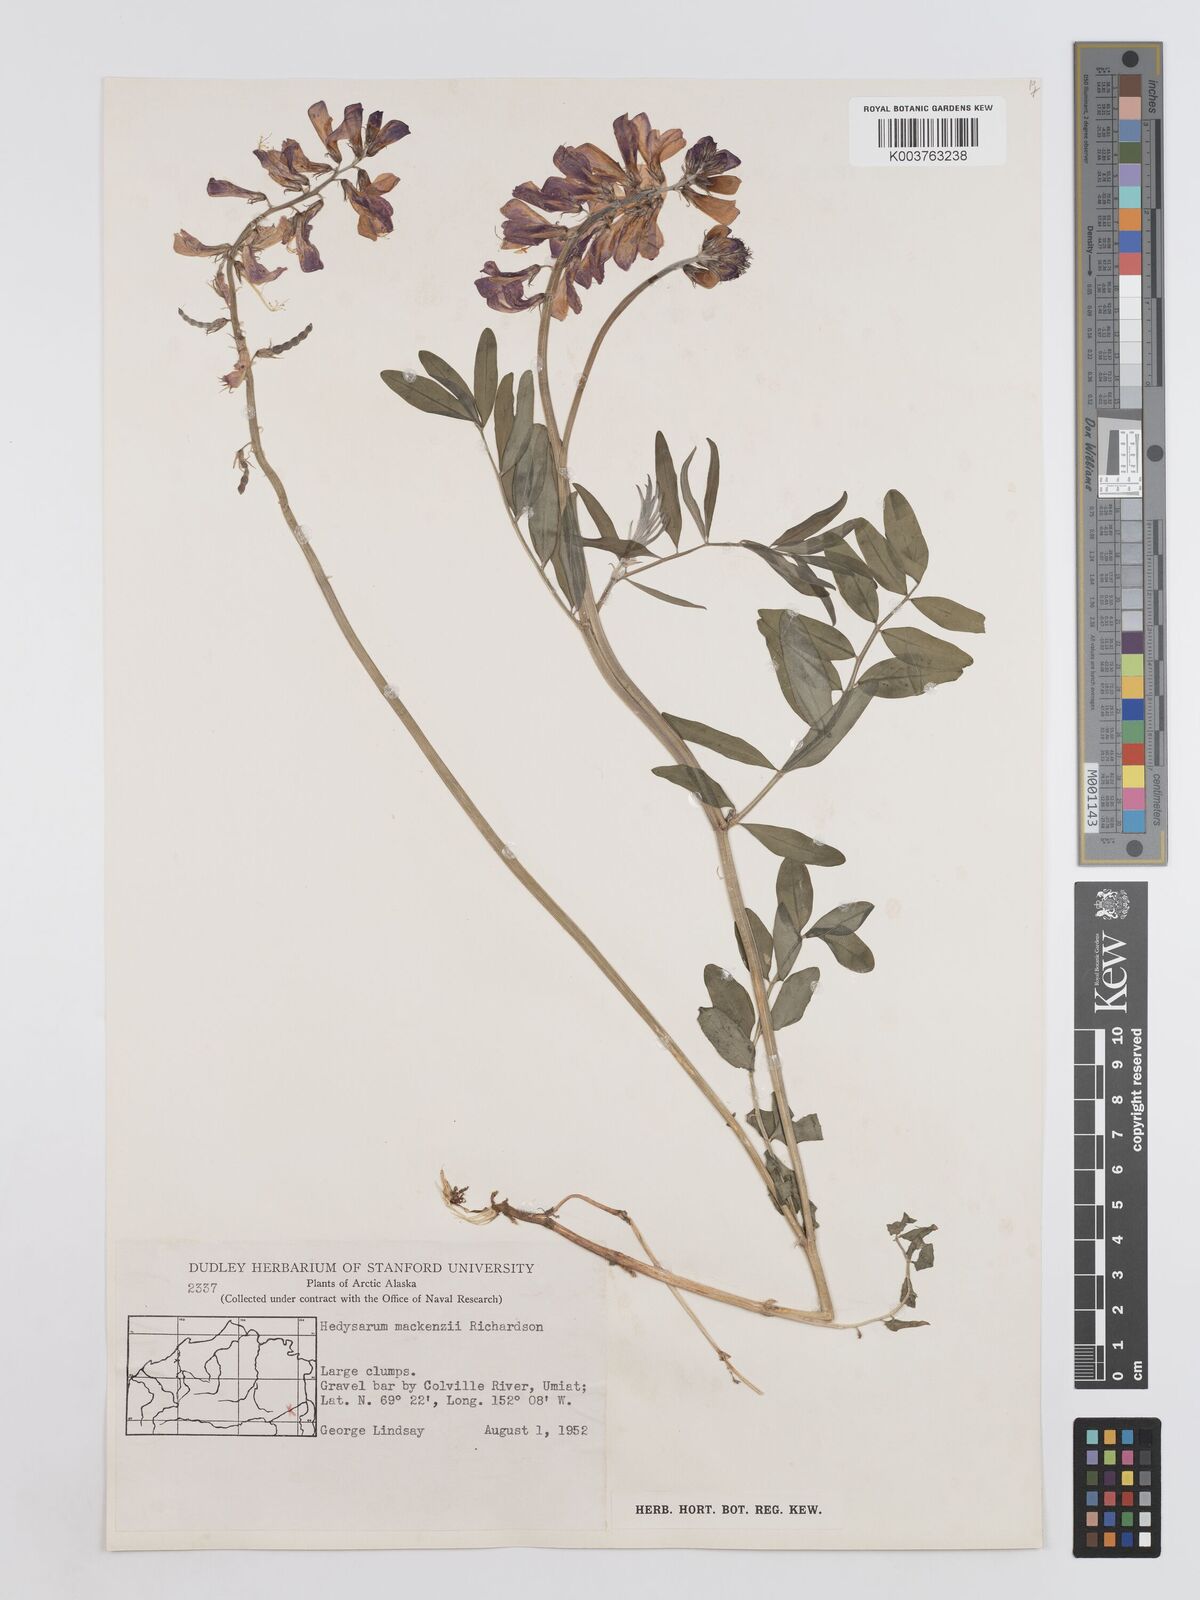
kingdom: Plantae
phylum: Tracheophyta
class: Magnoliopsida
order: Fabales
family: Fabaceae
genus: Hedysarum
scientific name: Hedysarum boreale
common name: Northern sweet-vetch
